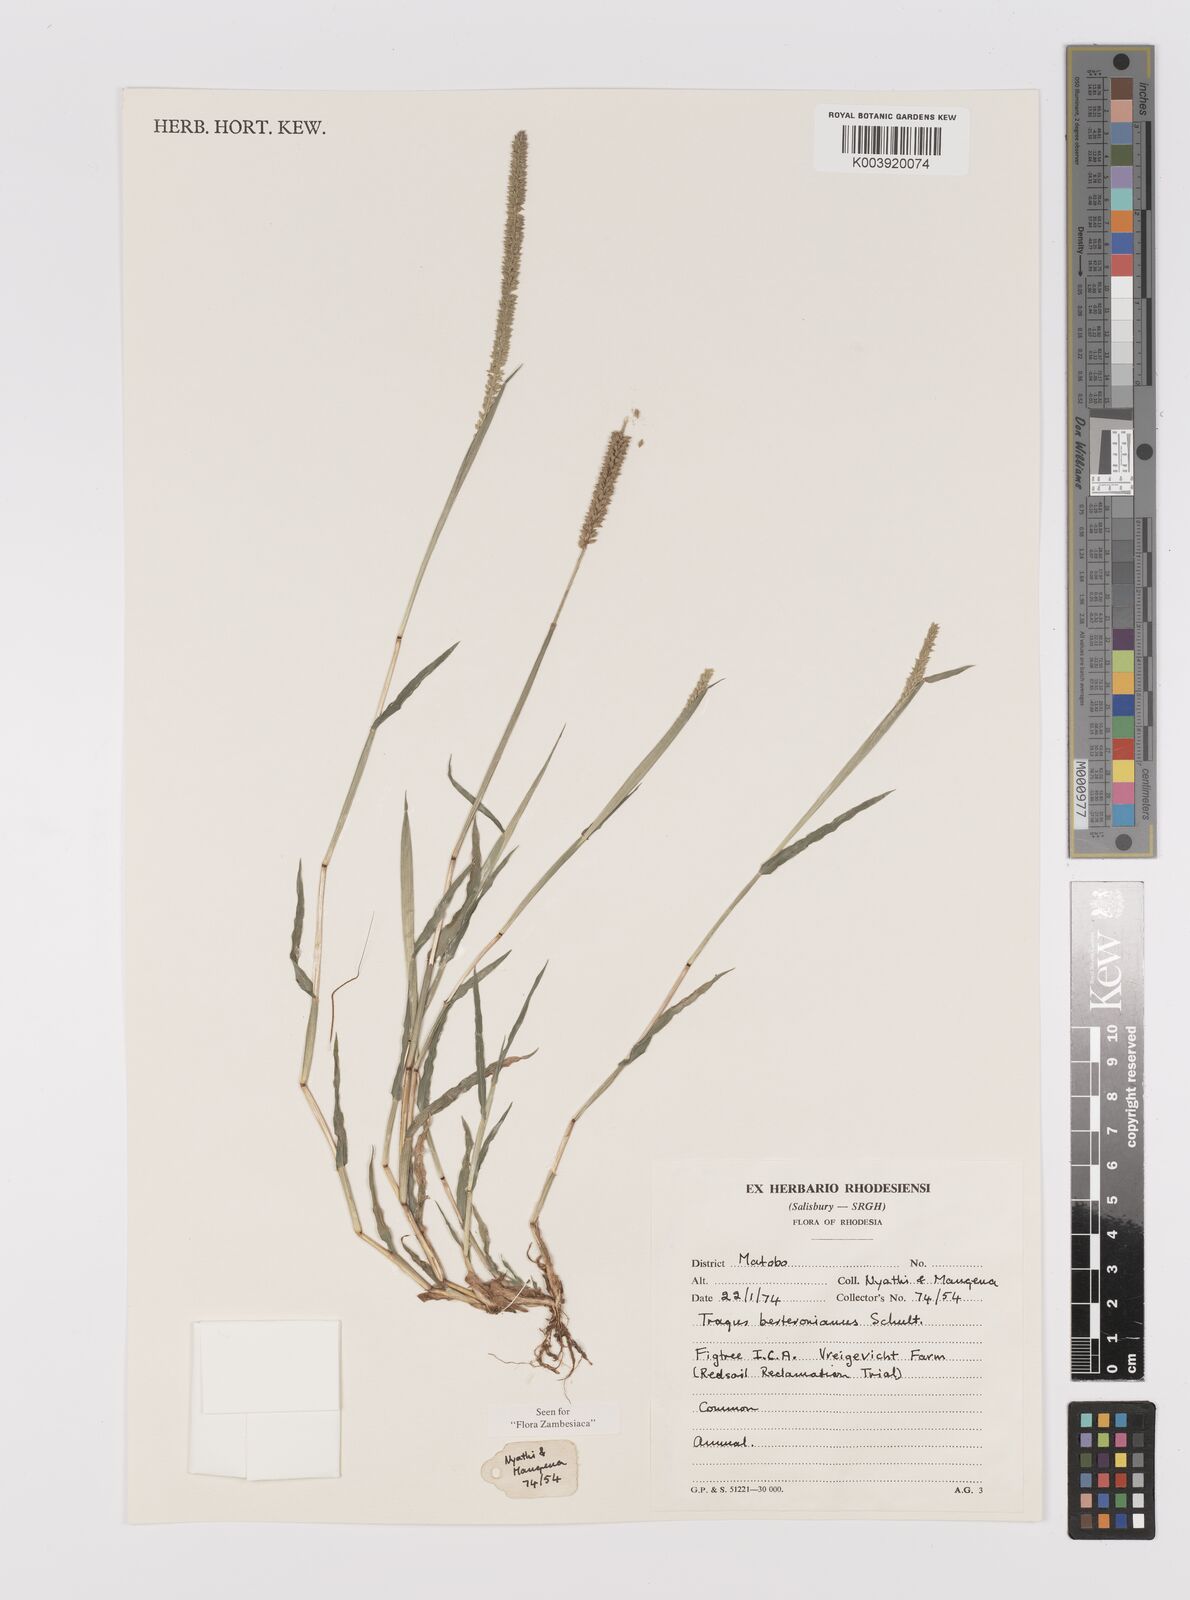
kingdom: Plantae
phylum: Tracheophyta
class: Liliopsida
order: Poales
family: Poaceae
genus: Tragus
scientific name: Tragus berteronianus
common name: African bur-grass
